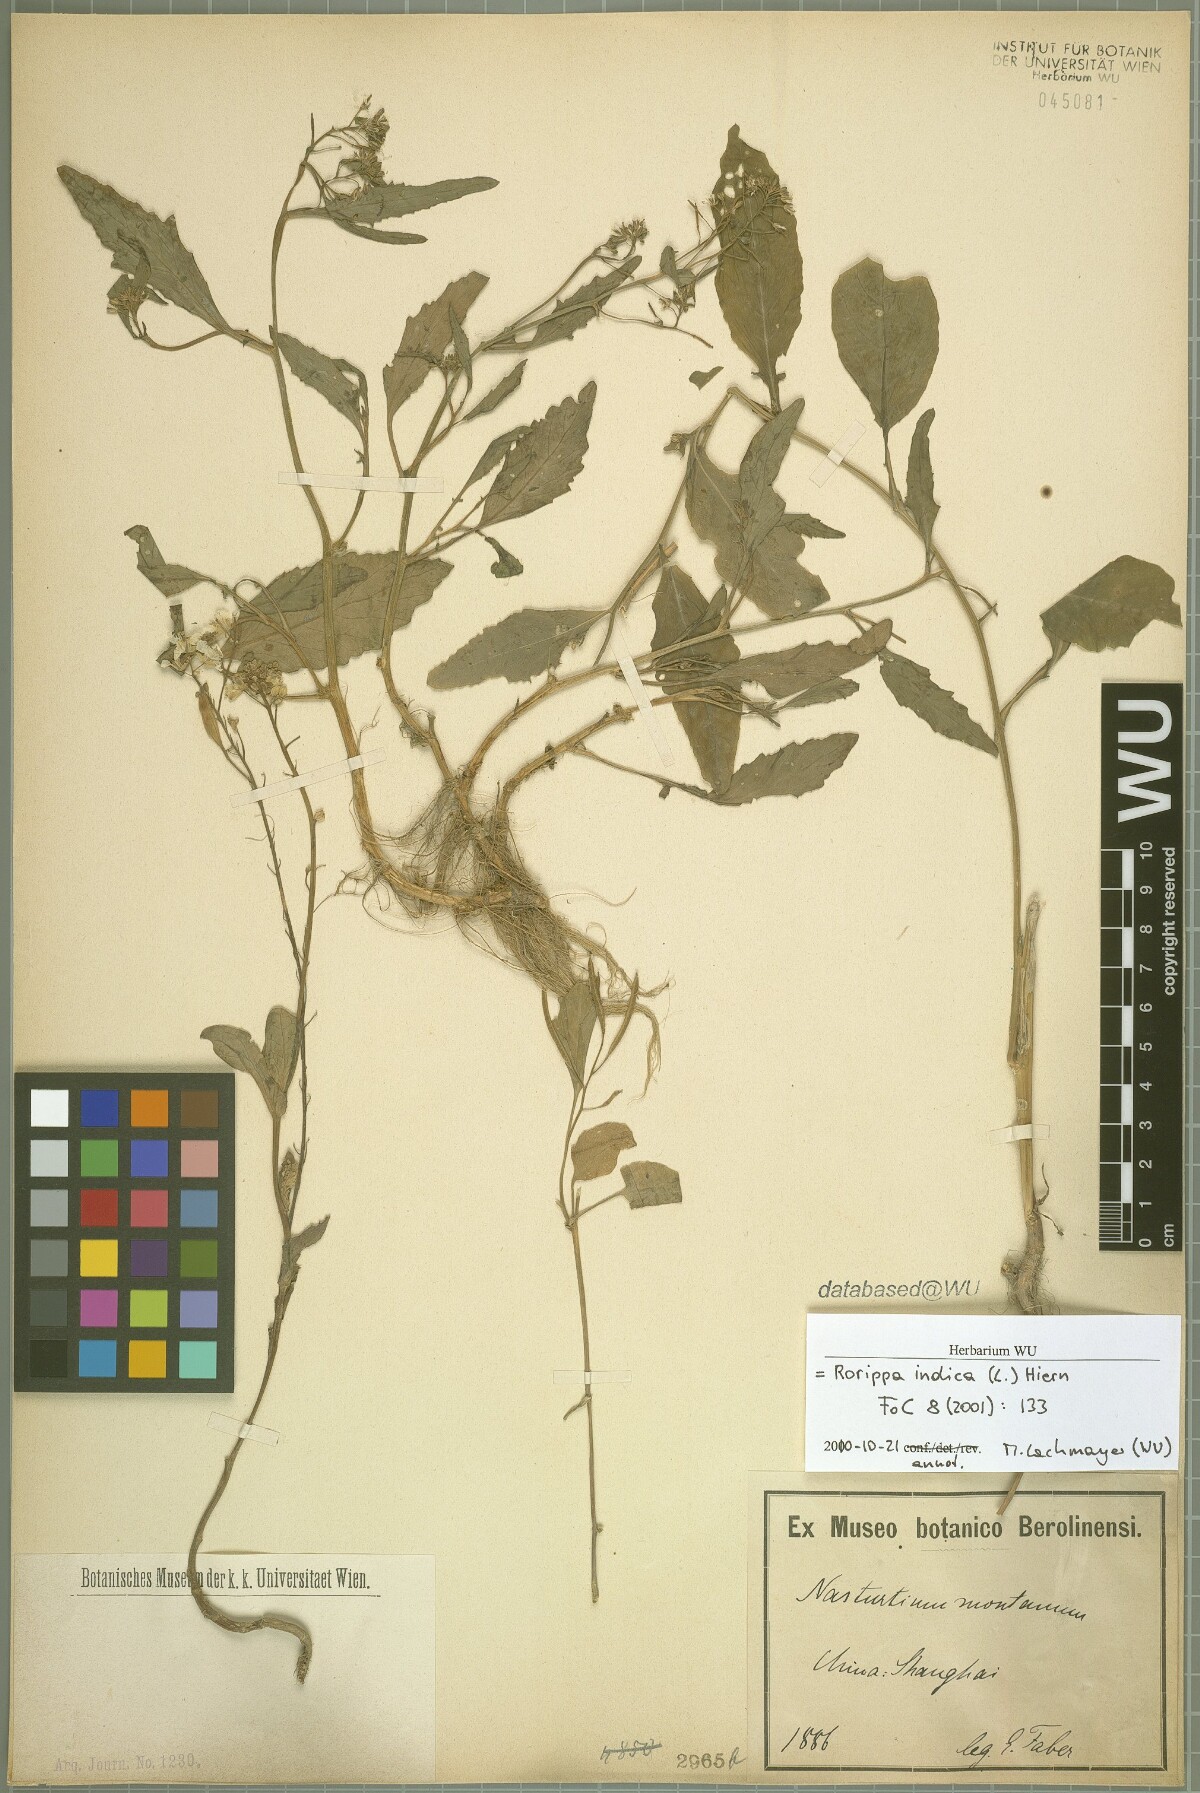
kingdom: Plantae
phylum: Tracheophyta
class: Magnoliopsida
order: Brassicales
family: Brassicaceae
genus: Rorippa
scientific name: Rorippa indica
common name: Variableleaf yellowcress
